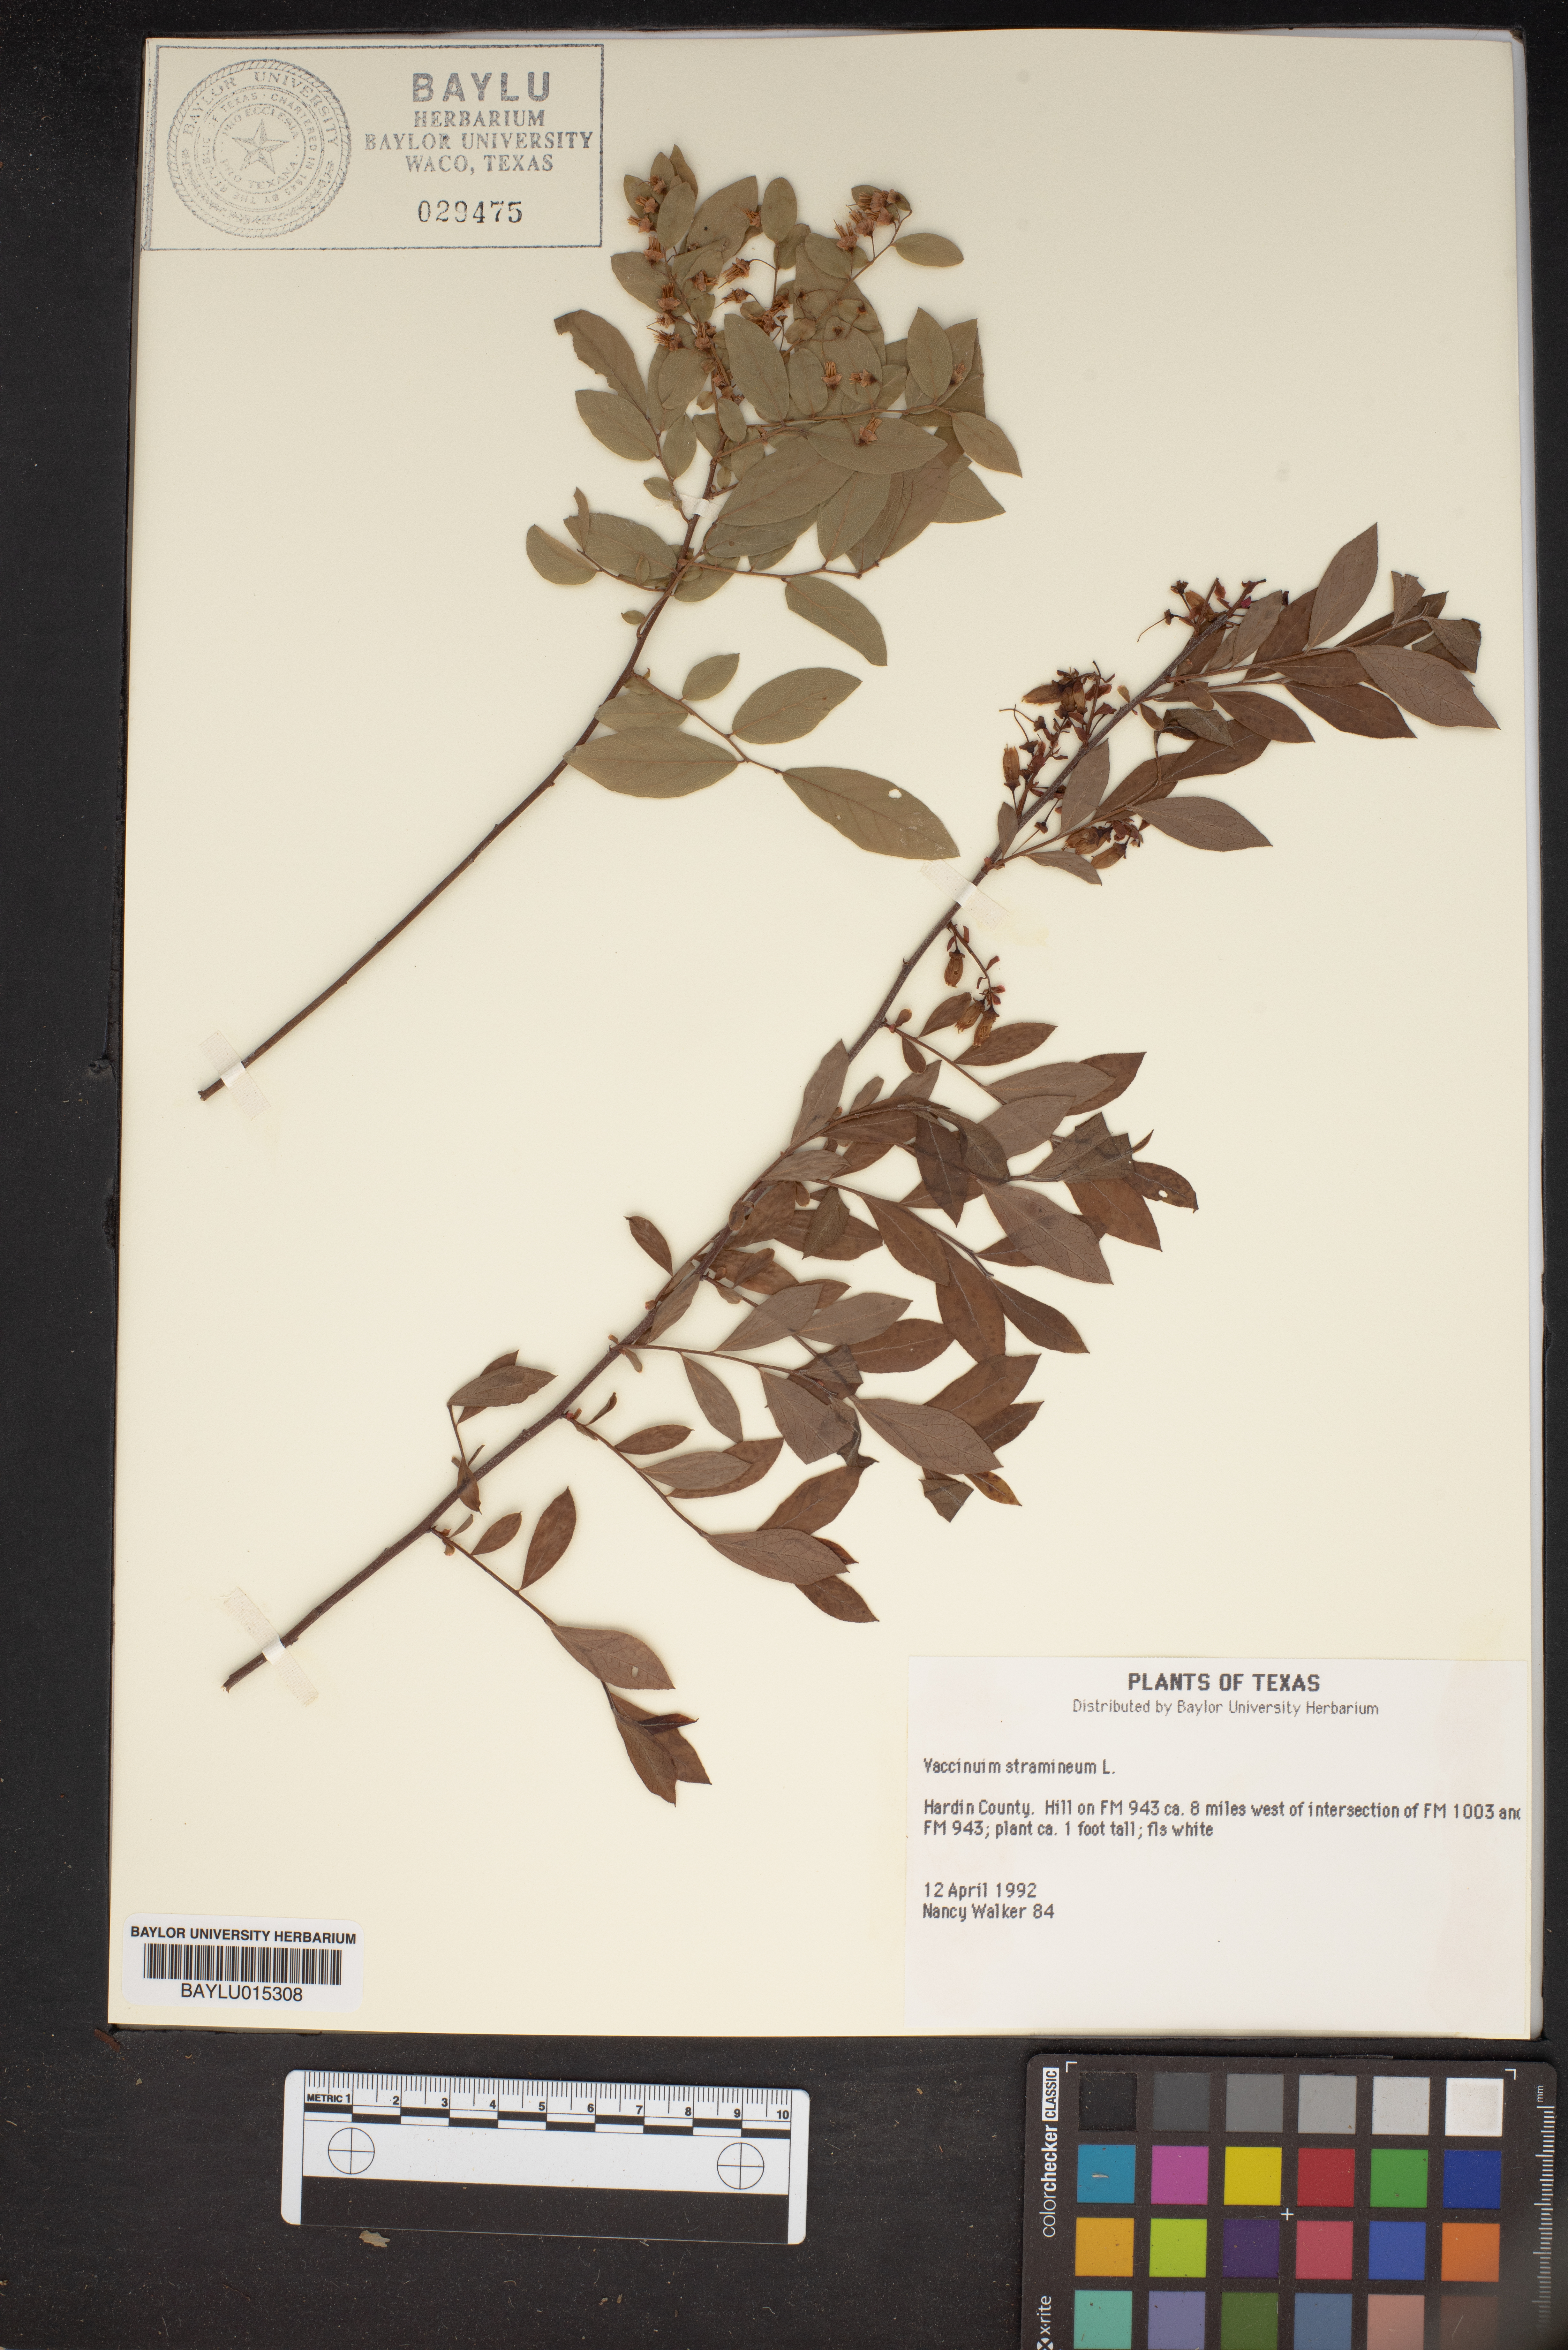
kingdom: Plantae
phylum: Tracheophyta
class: Magnoliopsida
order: Ericales
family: Ericaceae
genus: Vaccinium
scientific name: Vaccinium stramineum
